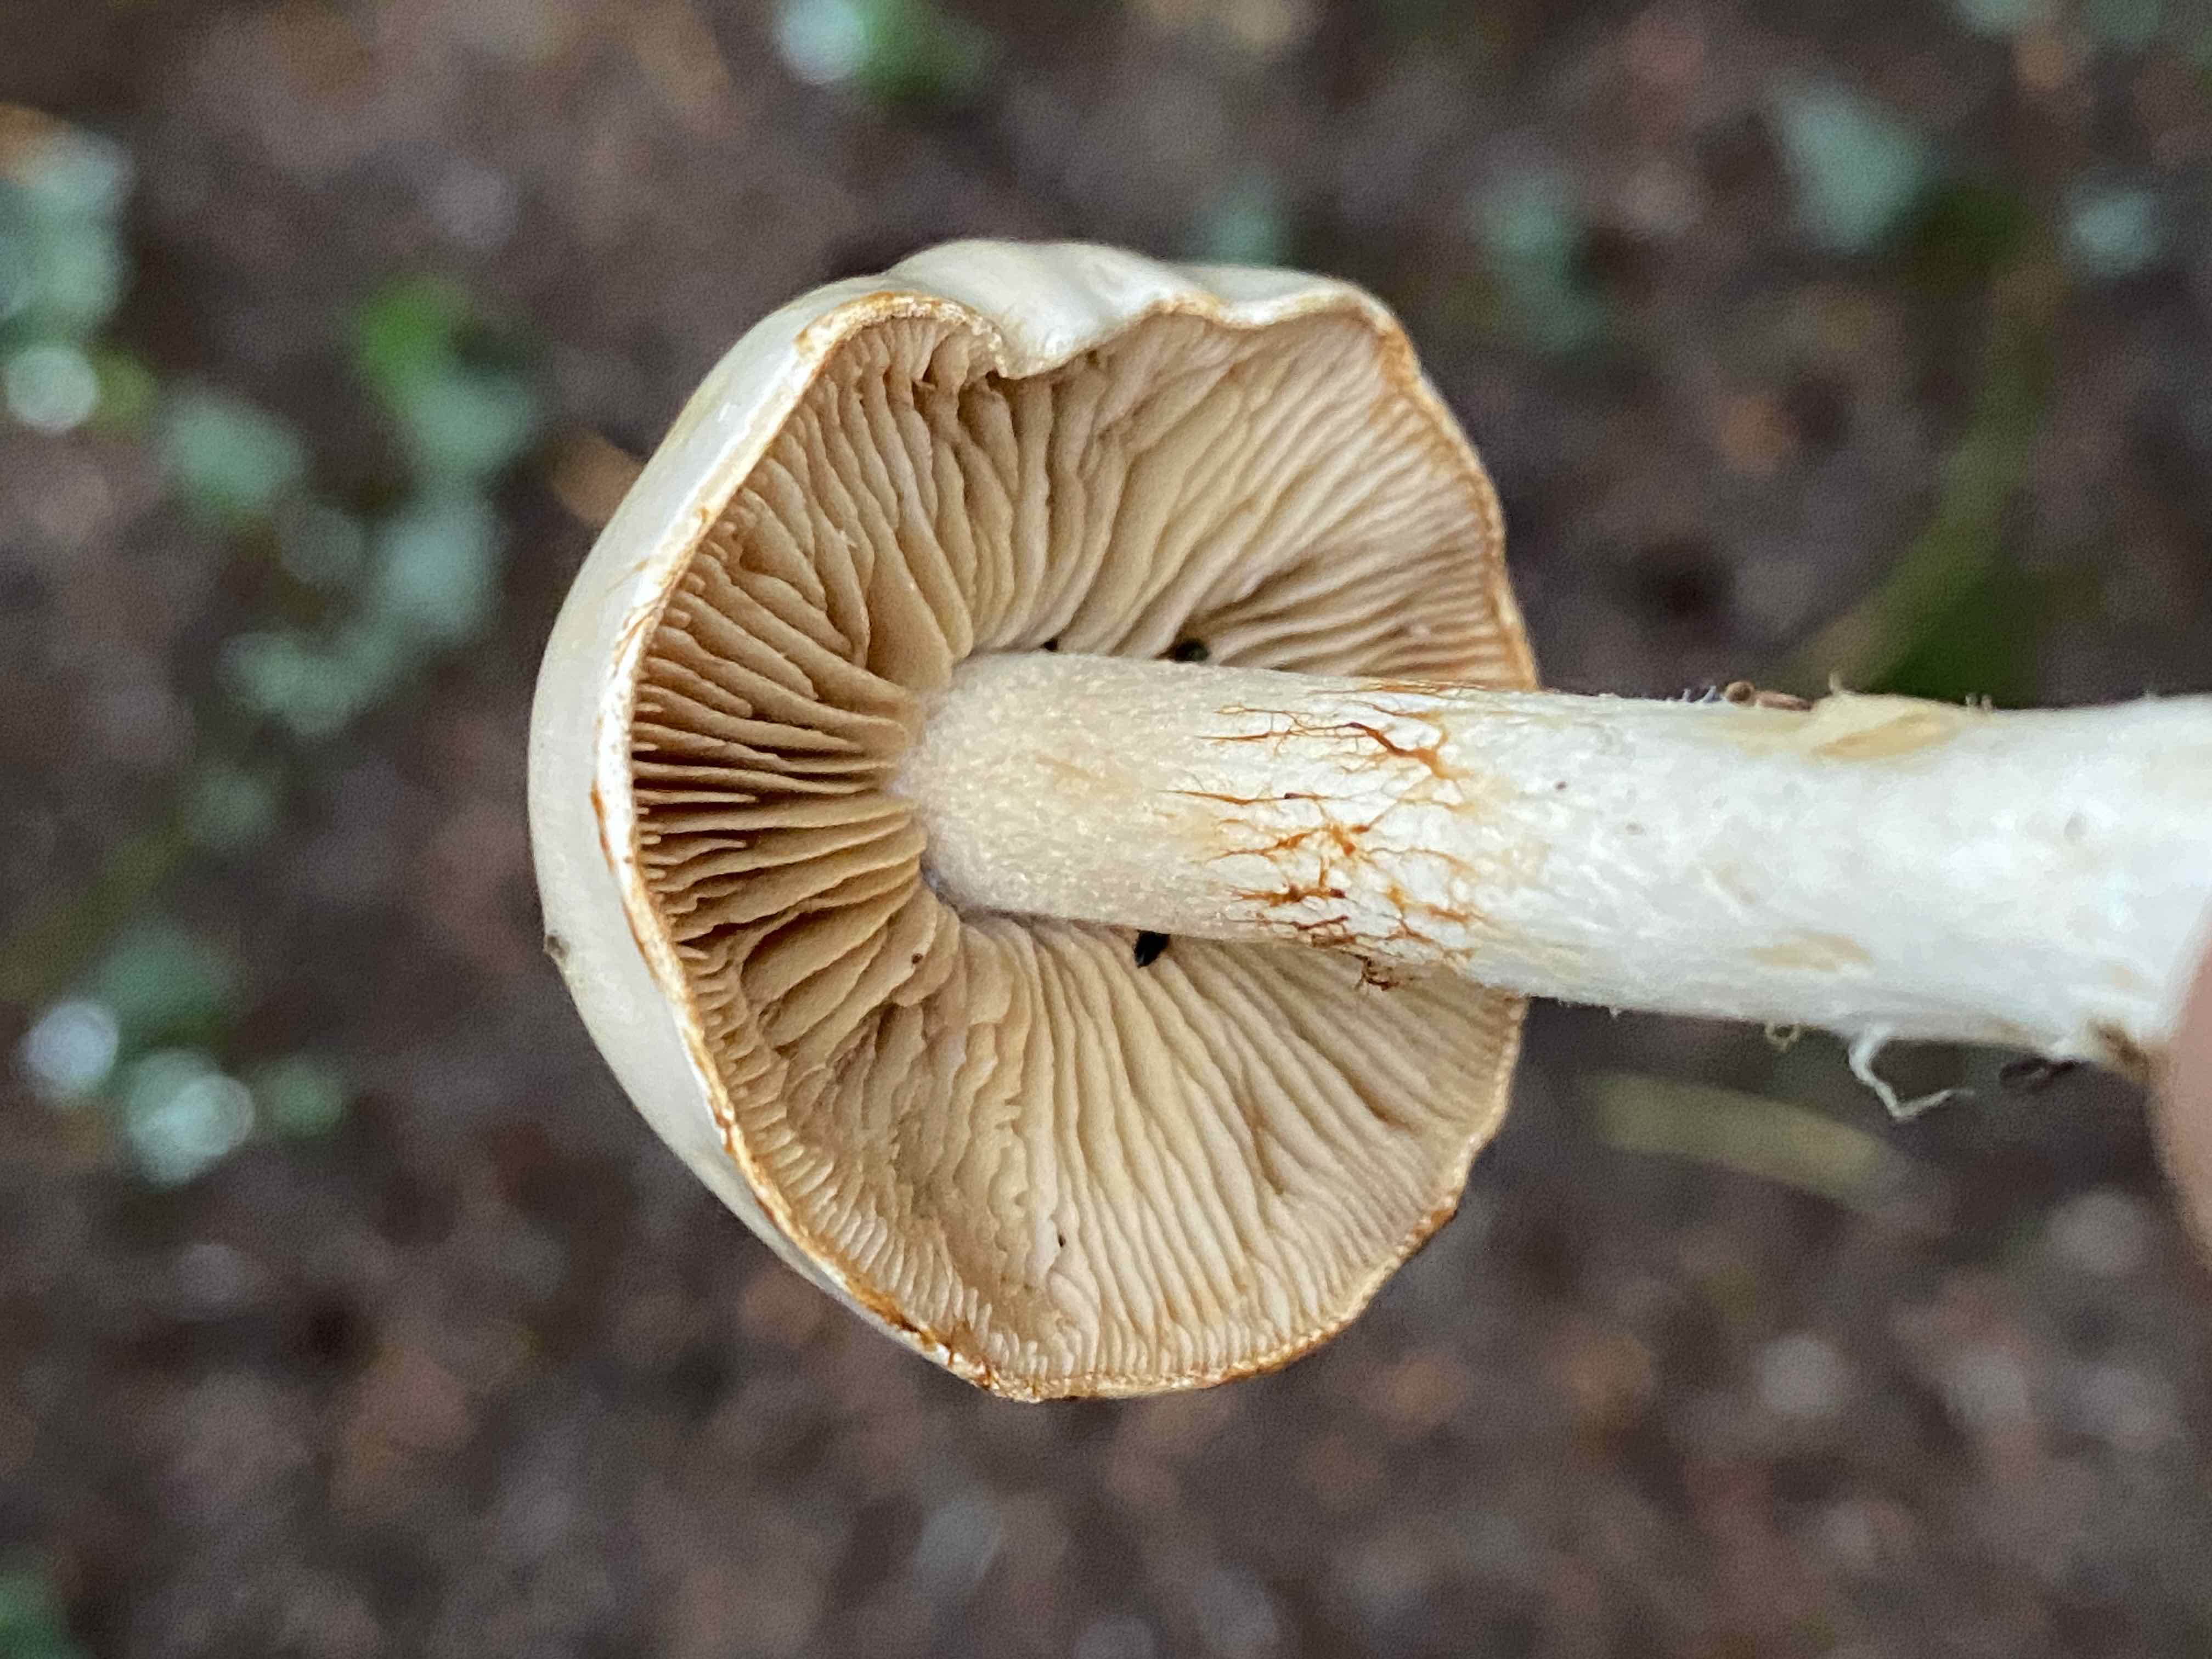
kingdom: Fungi
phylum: Basidiomycota
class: Agaricomycetes
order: Agaricales
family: Cortinariaceae
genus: Thaxterogaster
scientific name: Thaxterogaster
